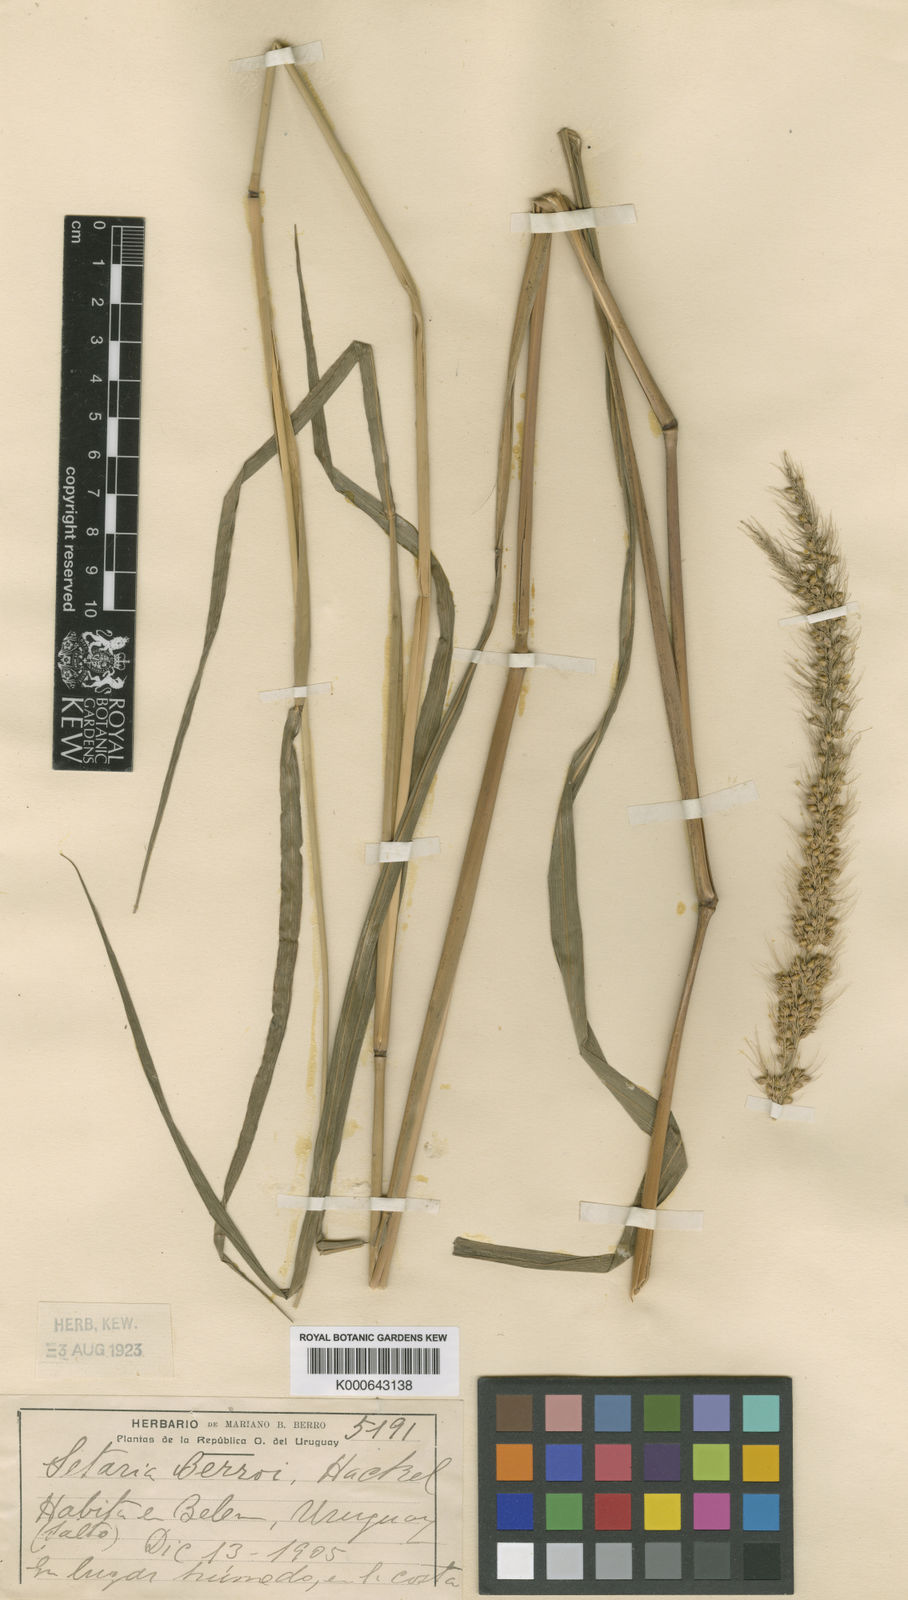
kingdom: Plantae
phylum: Tracheophyta
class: Liliopsida
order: Poales
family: Poaceae
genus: Setaria
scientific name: Setaria globulifera
